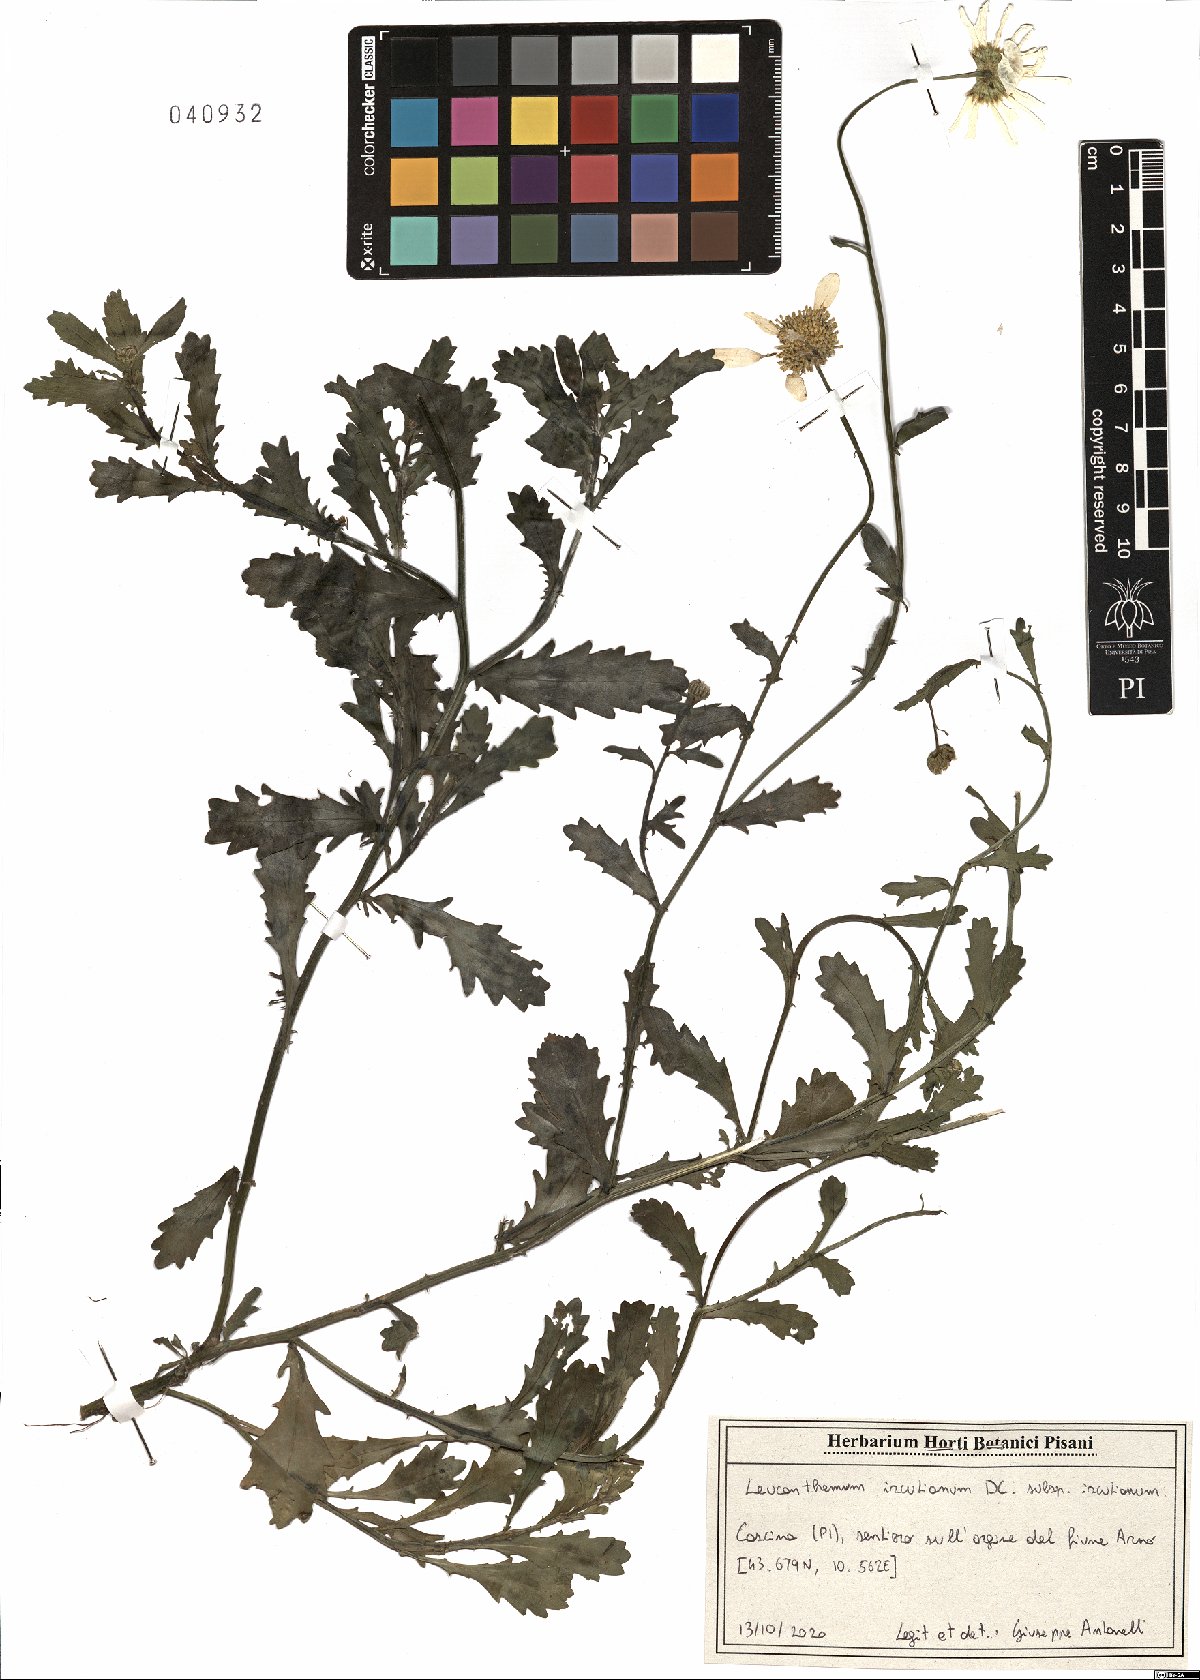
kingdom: Plantae
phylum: Tracheophyta
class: Magnoliopsida
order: Asterales
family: Asteraceae
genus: Leucanthemum
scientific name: Leucanthemum ircutianum
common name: Daisy
